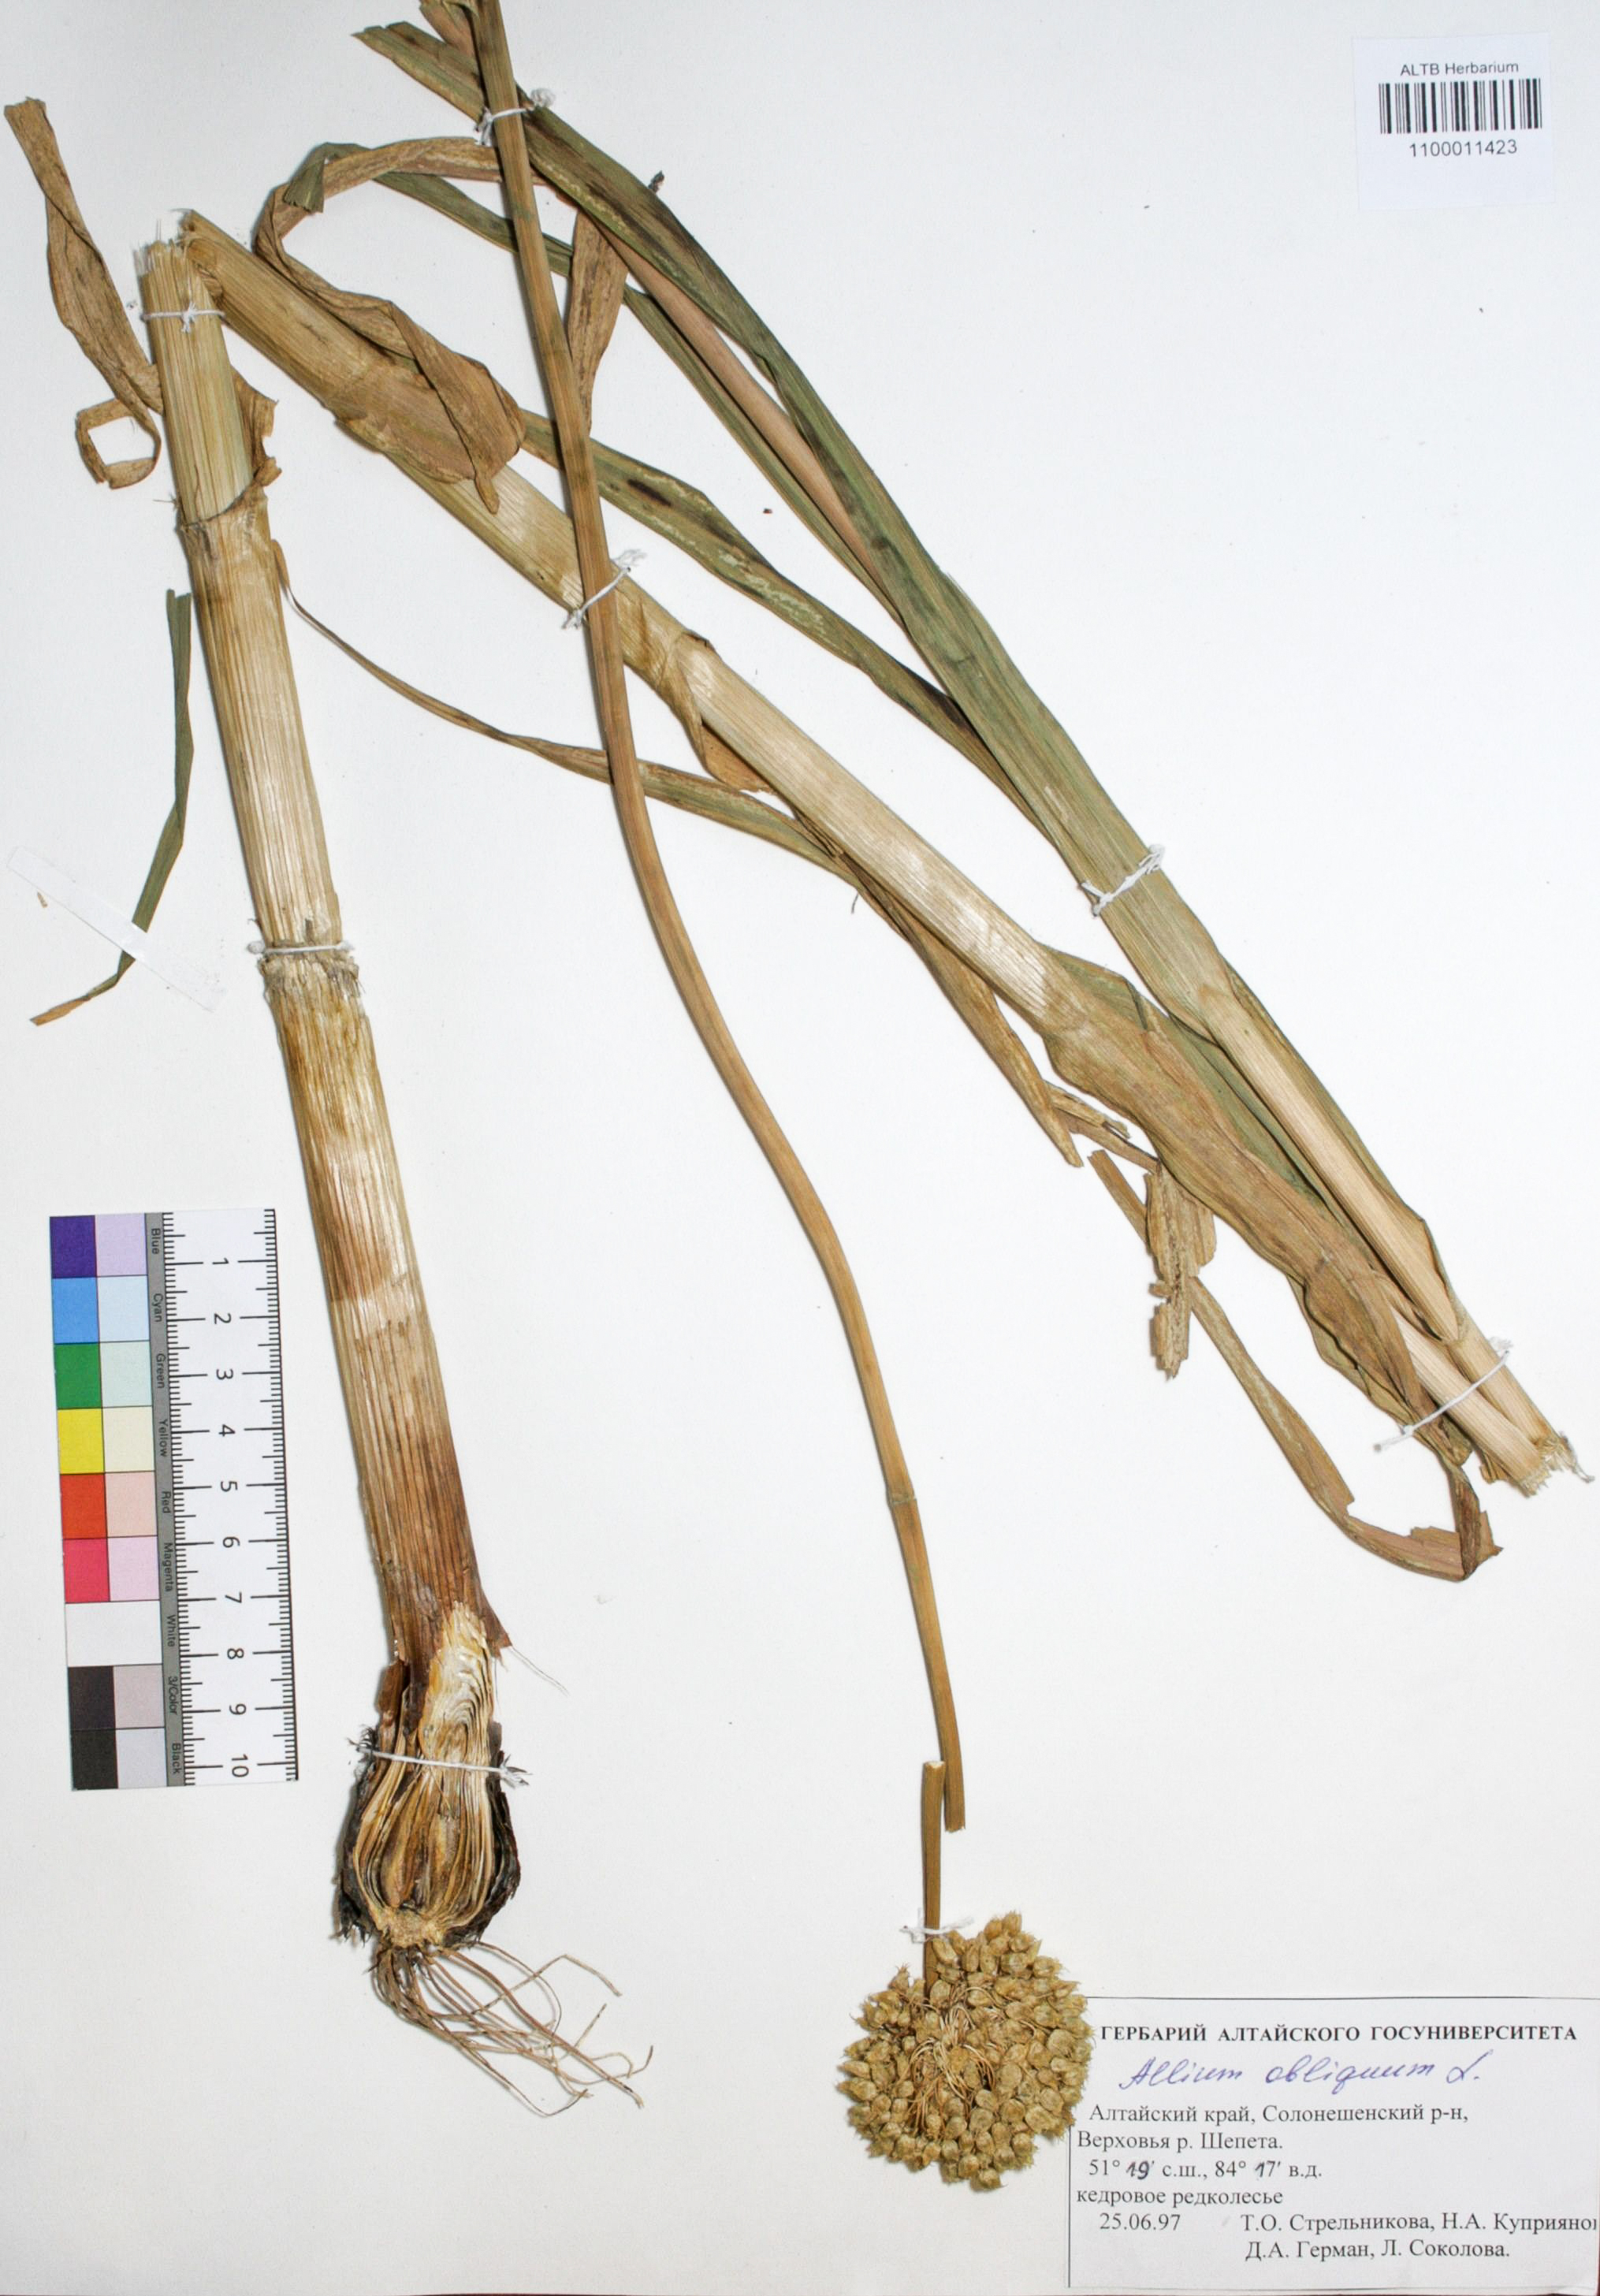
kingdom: Plantae
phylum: Tracheophyta
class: Liliopsida
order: Asparagales
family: Amaryllidaceae
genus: Allium
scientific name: Allium obliquum
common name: Oblique onion
